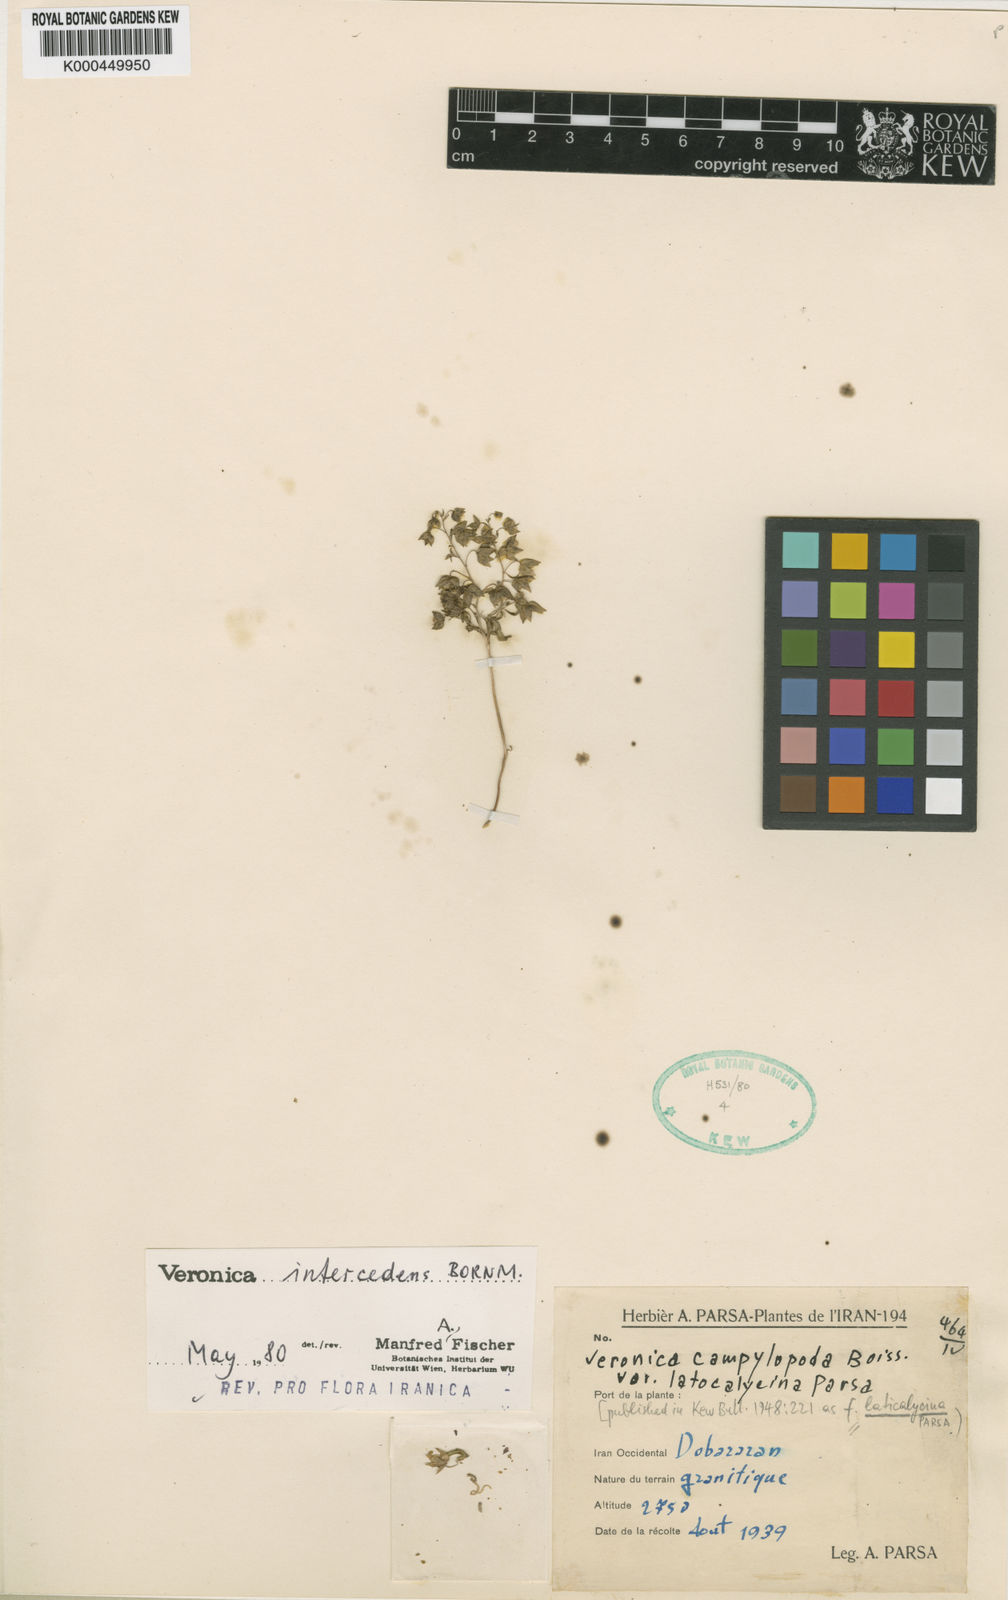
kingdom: Plantae
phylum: Tracheophyta
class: Magnoliopsida
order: Lamiales
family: Plantaginaceae
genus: Veronica
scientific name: Veronica intercedens
